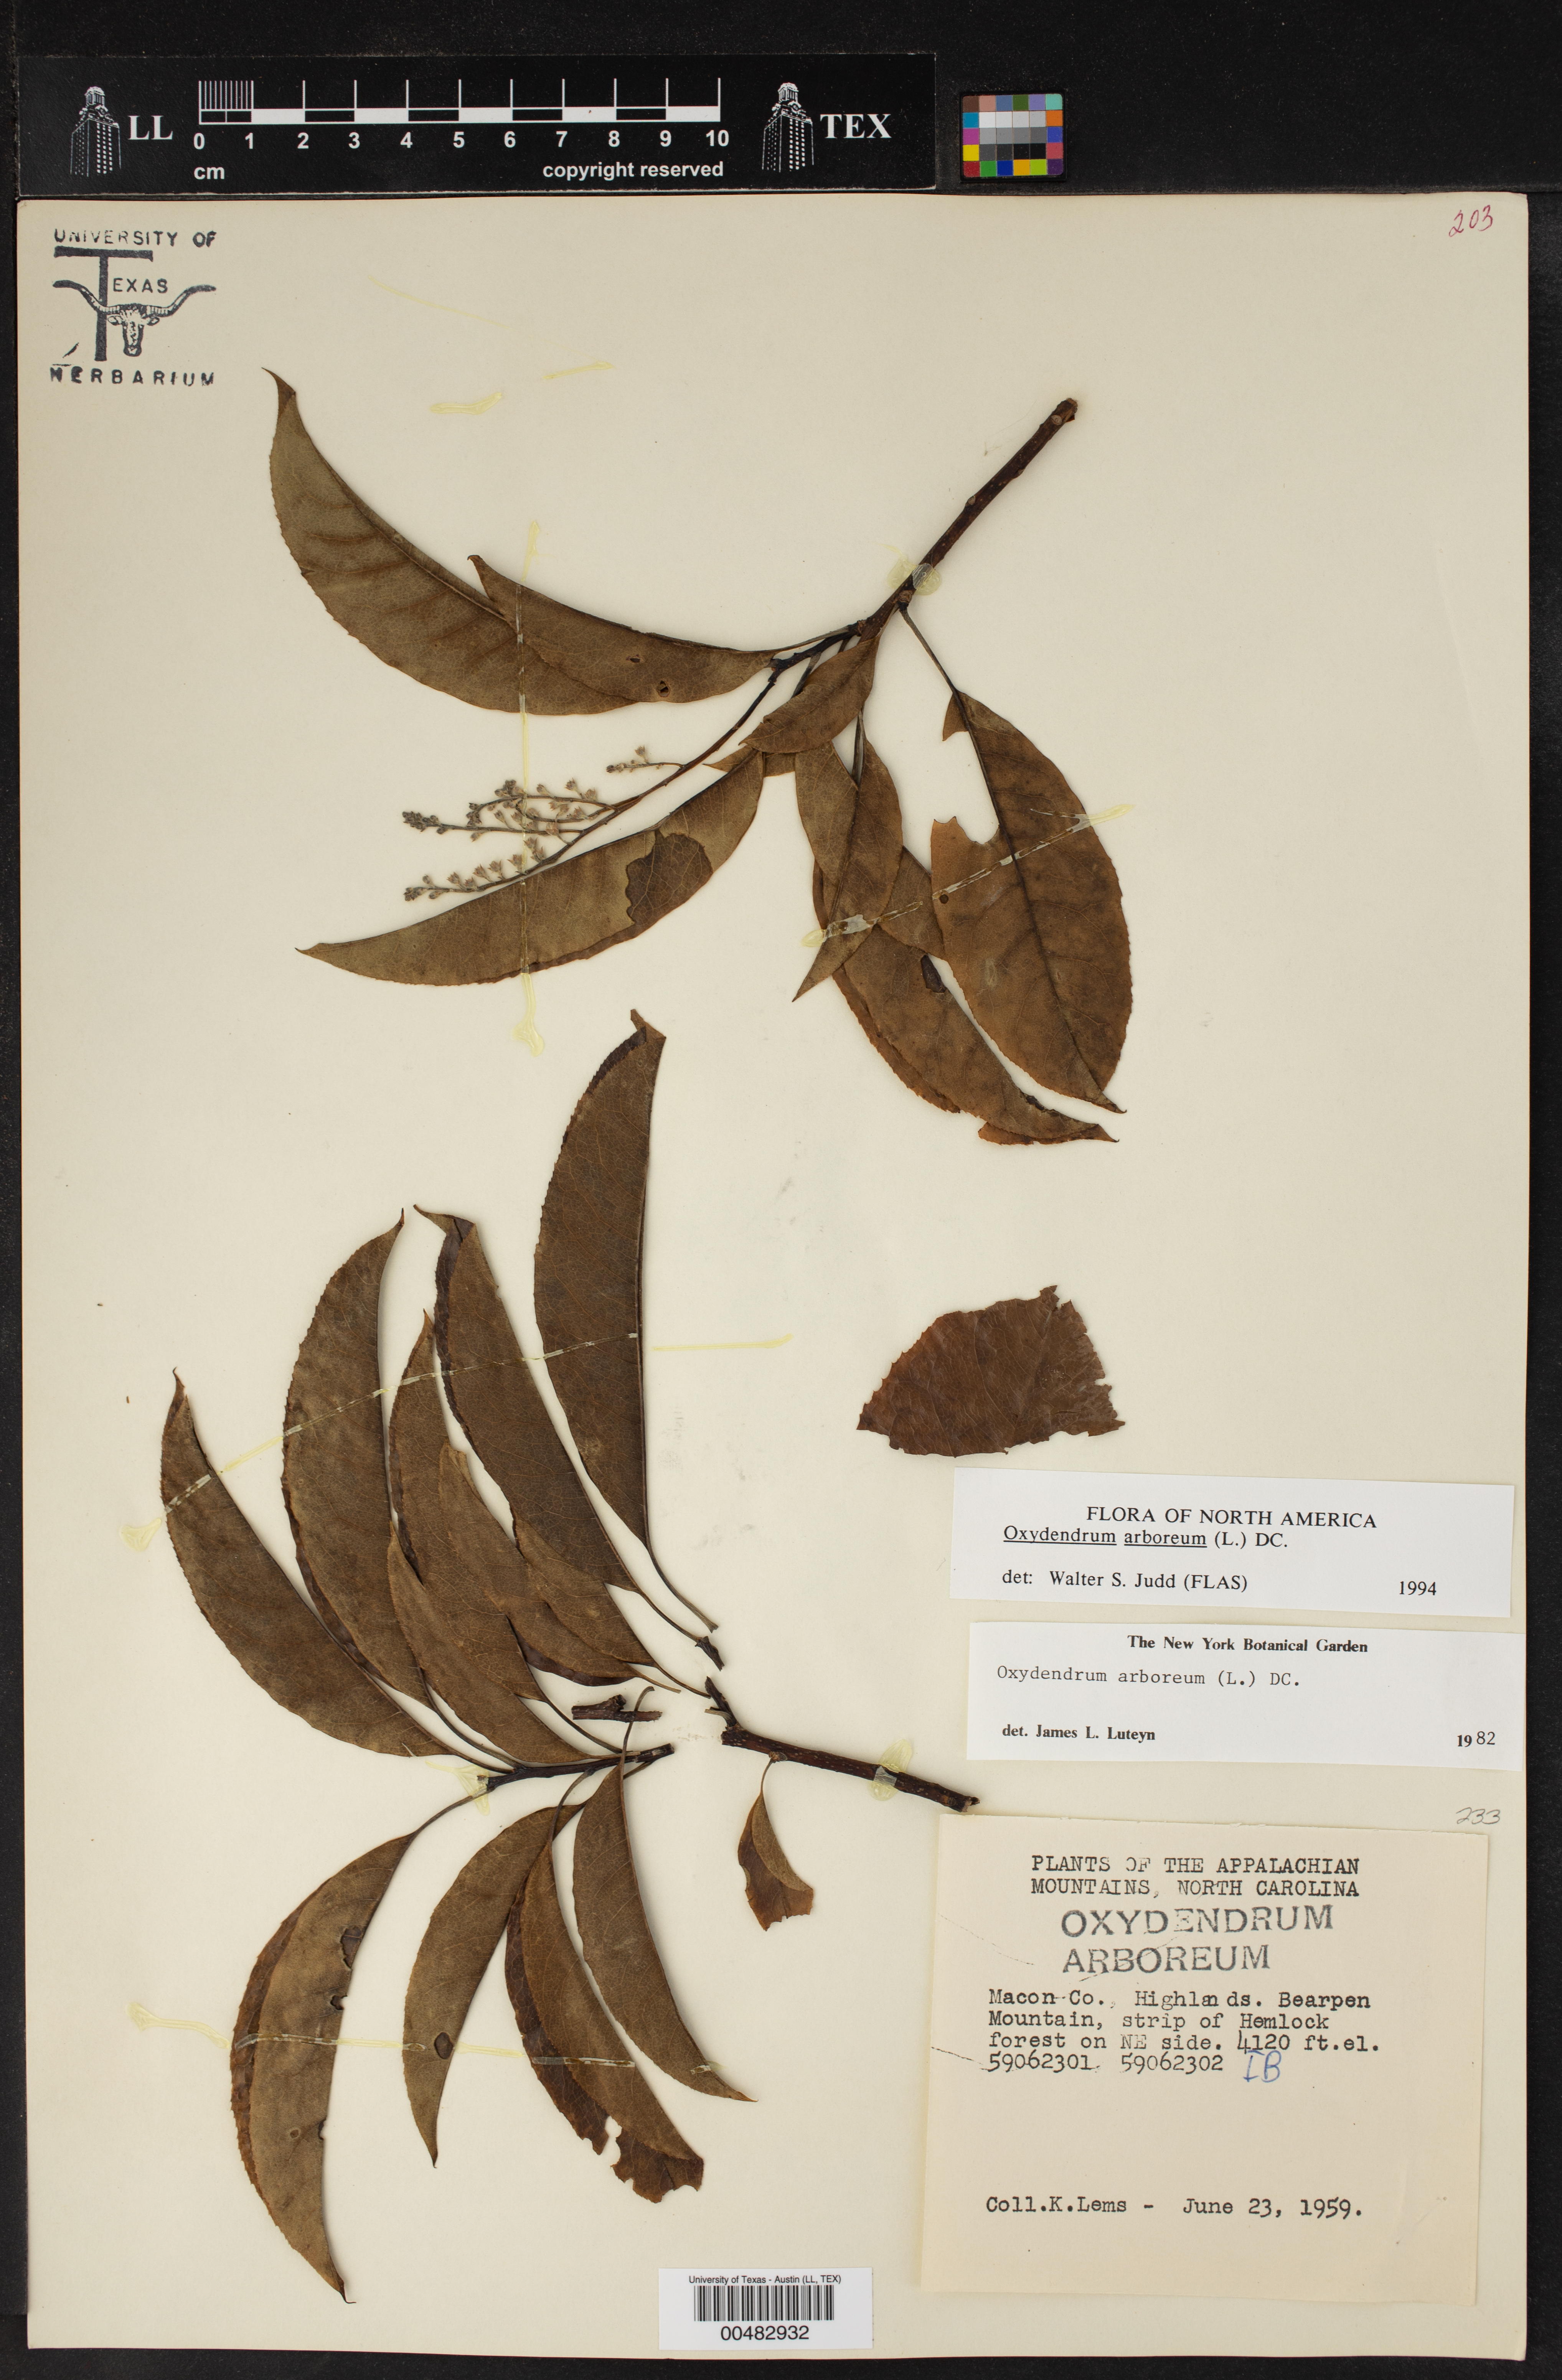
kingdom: Plantae
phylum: Tracheophyta
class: Magnoliopsida
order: Ericales
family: Ericaceae
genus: Oxydendrum
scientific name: Oxydendrum arboreum
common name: Sourwood
